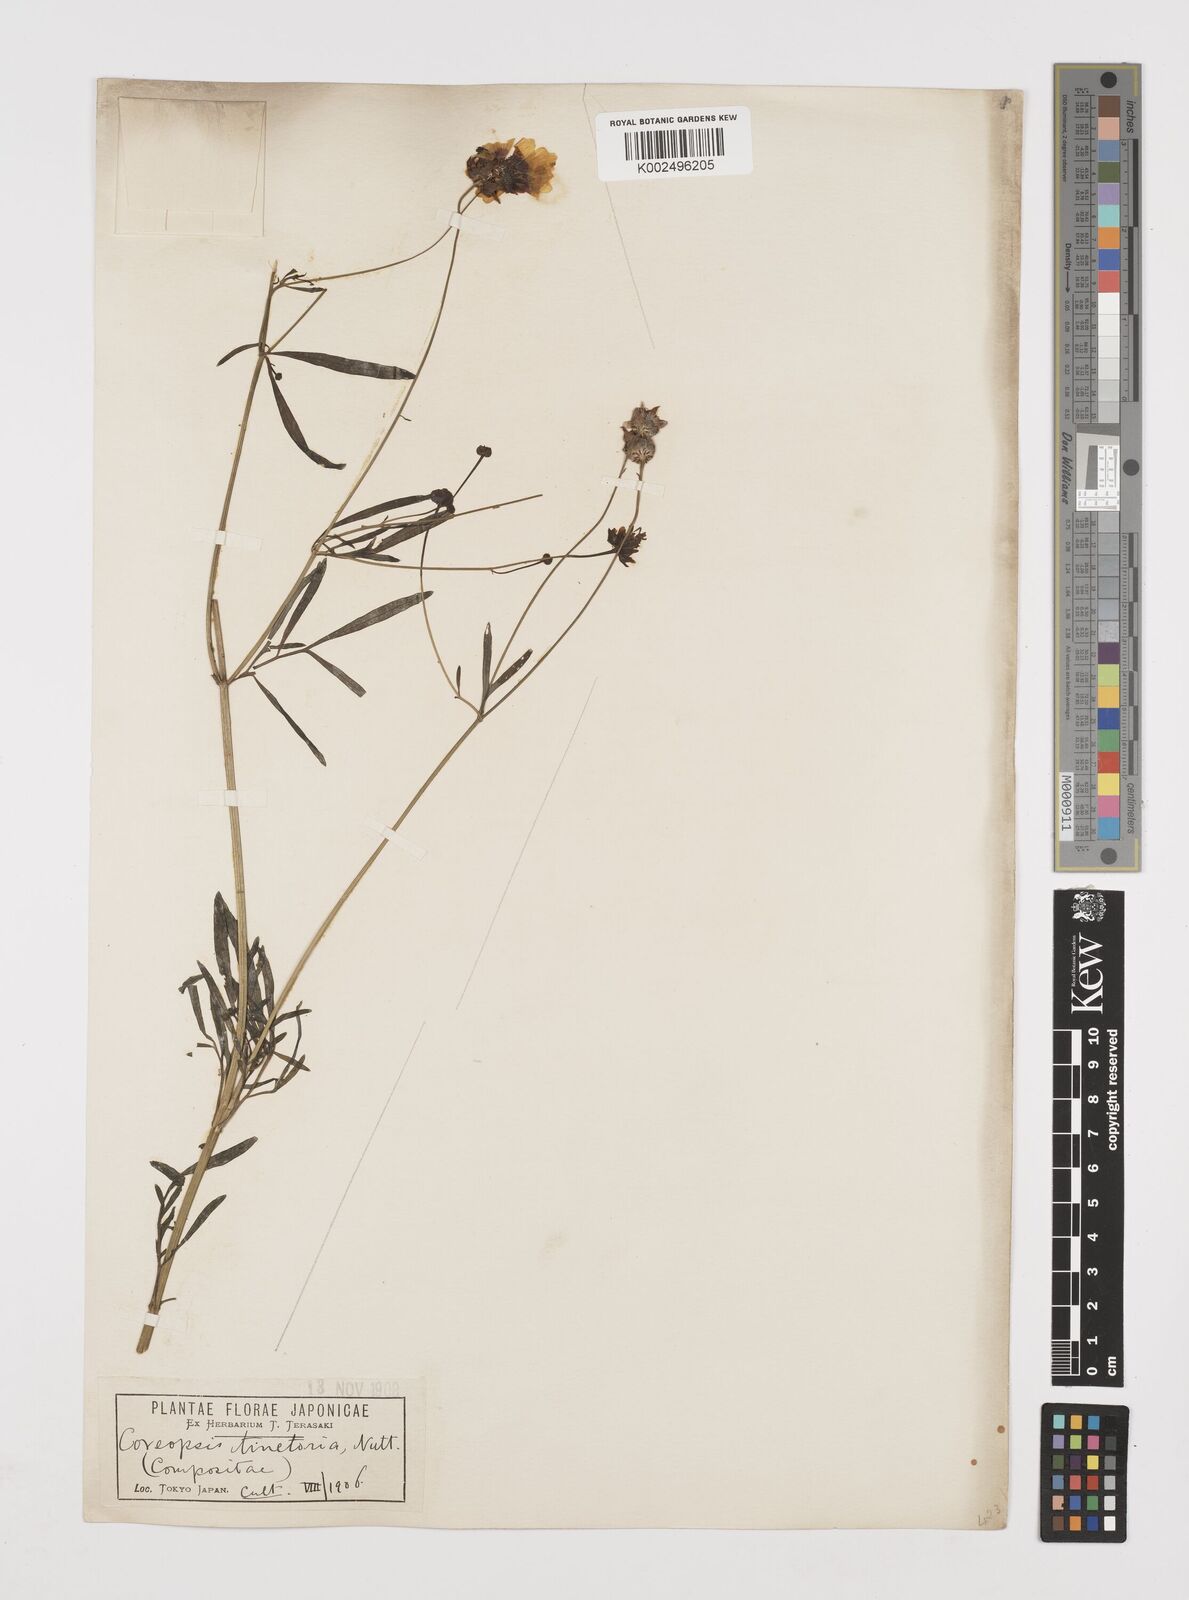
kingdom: Plantae
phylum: Tracheophyta
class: Magnoliopsida
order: Asterales
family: Asteraceae
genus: Coreopsis
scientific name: Coreopsis tinctoria
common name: Garden tickseed
